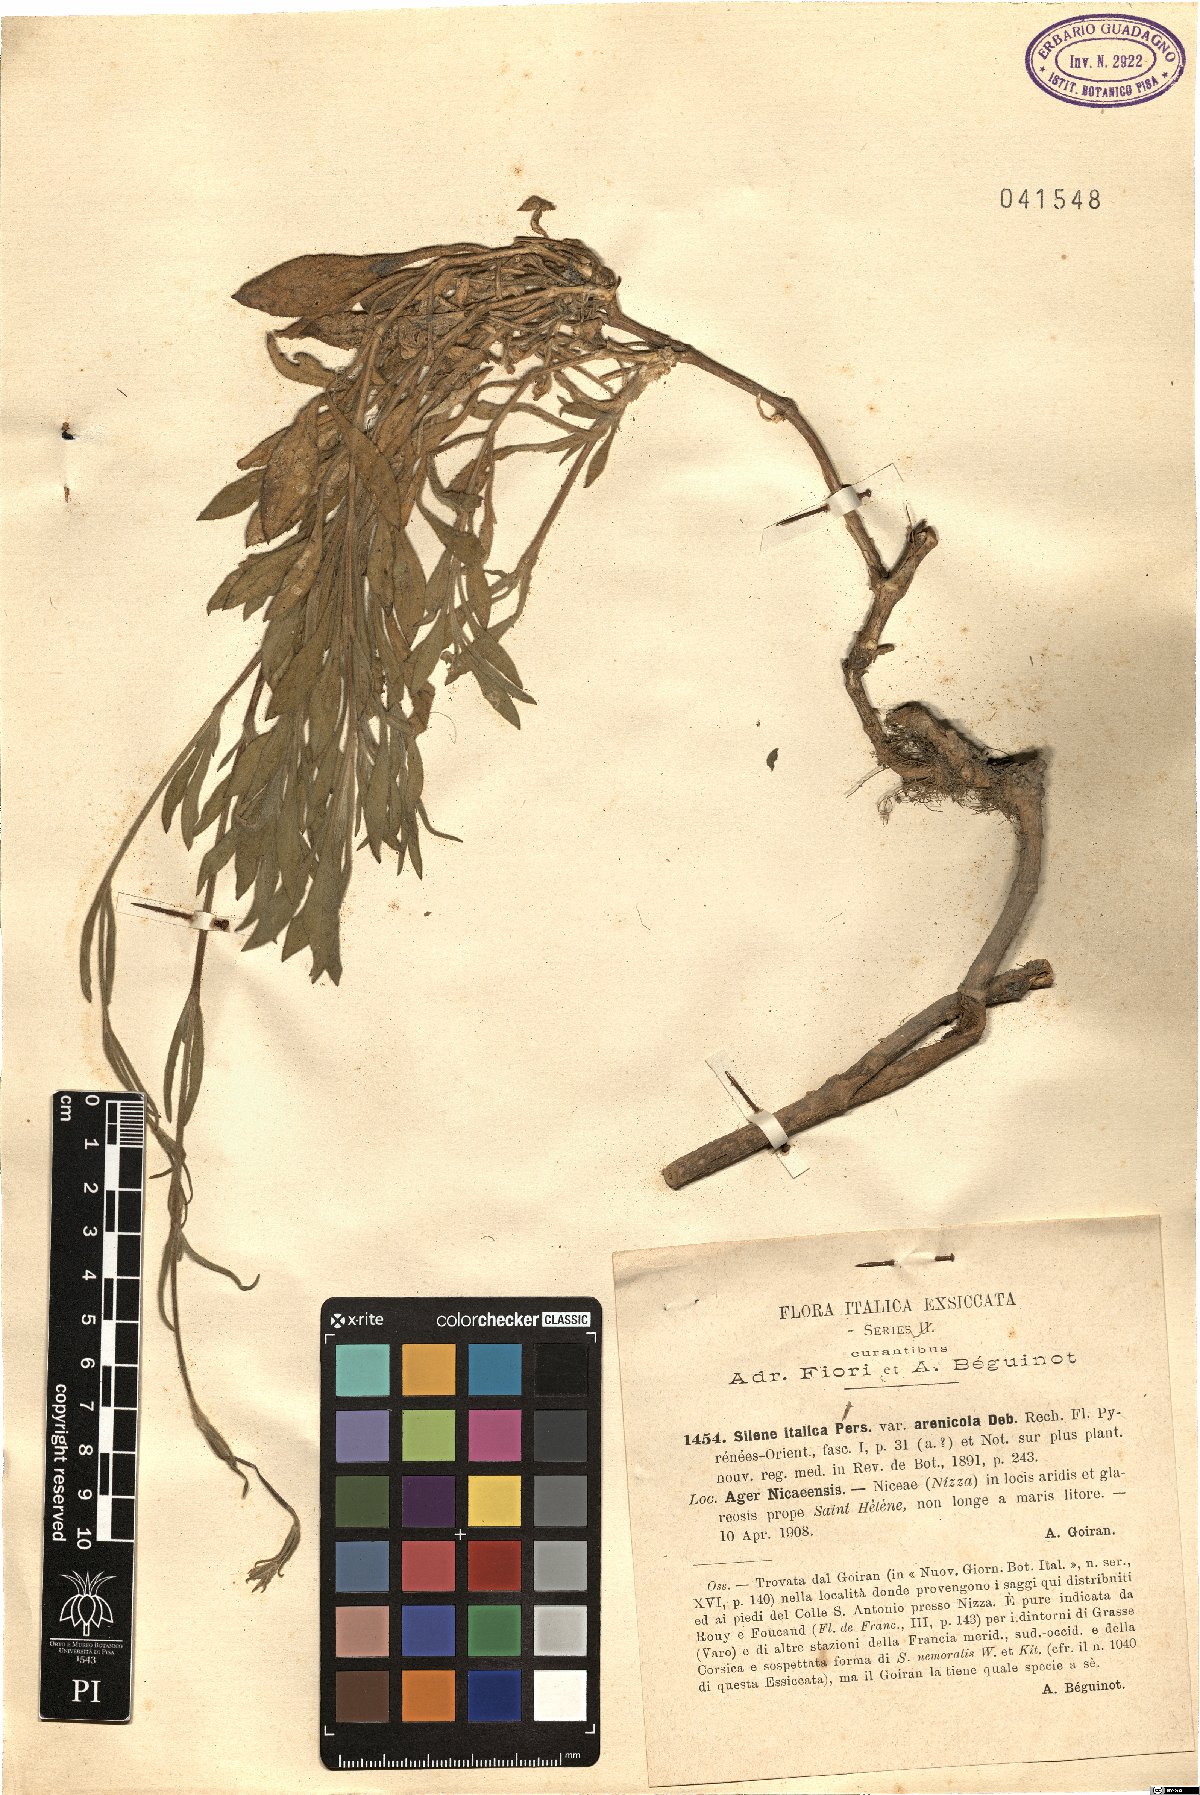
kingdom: Plantae
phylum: Tracheophyta
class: Magnoliopsida
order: Caryophyllales
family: Caryophyllaceae
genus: Silene
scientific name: Silene nemoralis
